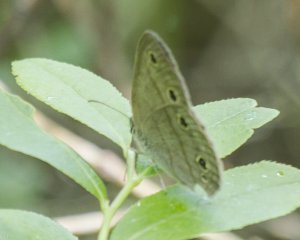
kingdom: Animalia
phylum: Arthropoda
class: Insecta
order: Lepidoptera
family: Nymphalidae
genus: Euptychia
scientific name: Euptychia cymela
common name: Little Wood Satyr
